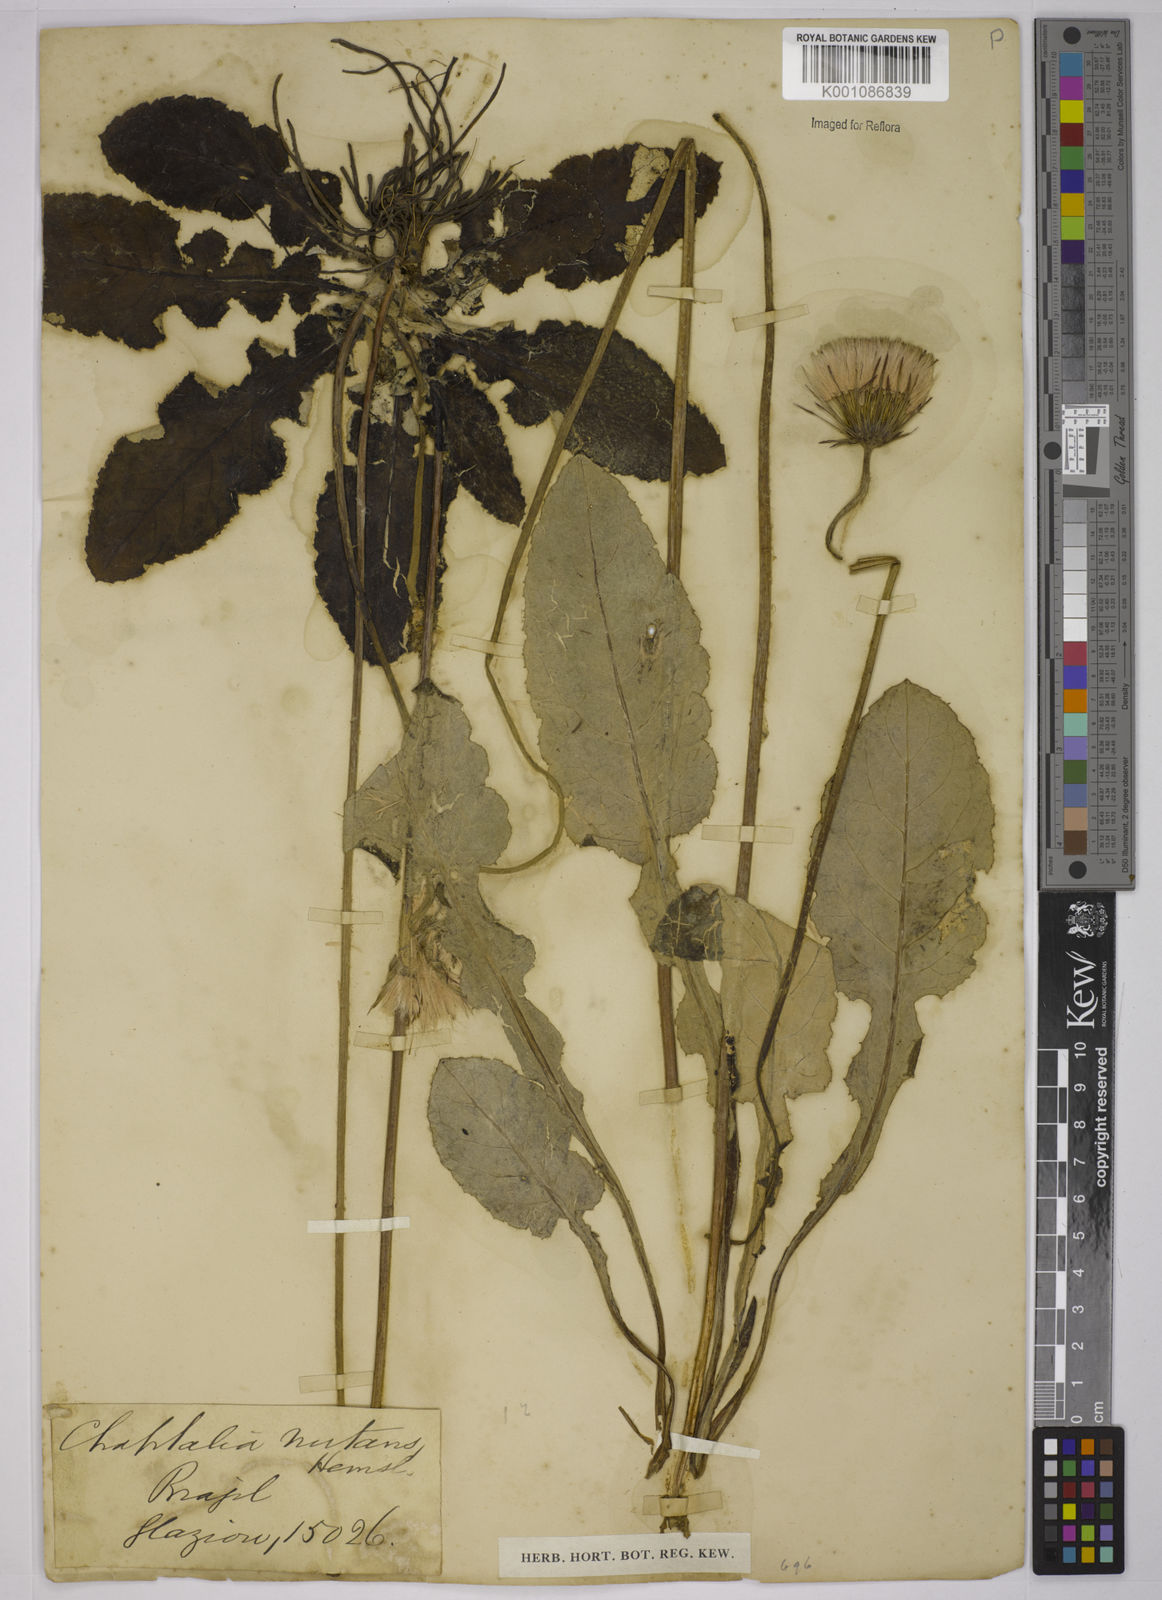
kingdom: Plantae
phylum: Tracheophyta
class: Magnoliopsida
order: Asterales
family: Asteraceae
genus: Chaptalia
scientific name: Chaptalia nutans
